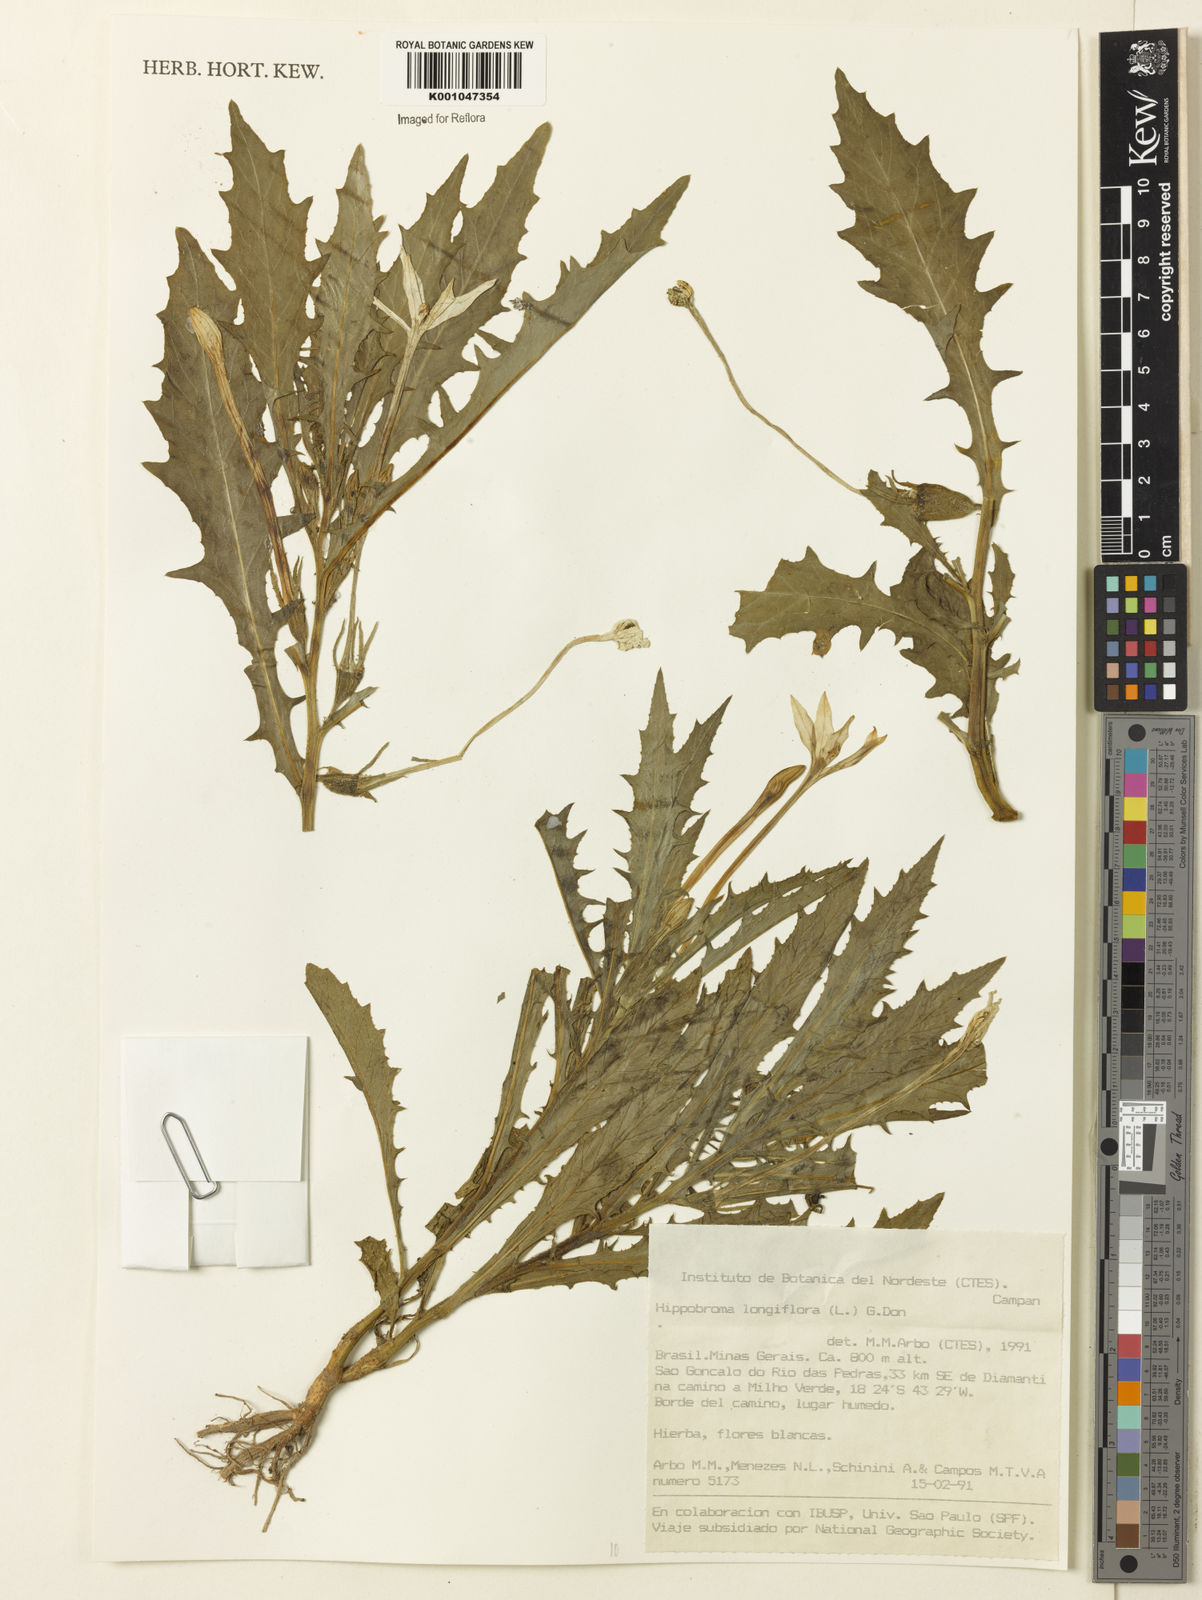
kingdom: Plantae
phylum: Tracheophyta
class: Magnoliopsida
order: Asterales
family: Campanulaceae
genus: Hippobroma
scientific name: Hippobroma longiflora
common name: Madamfate
